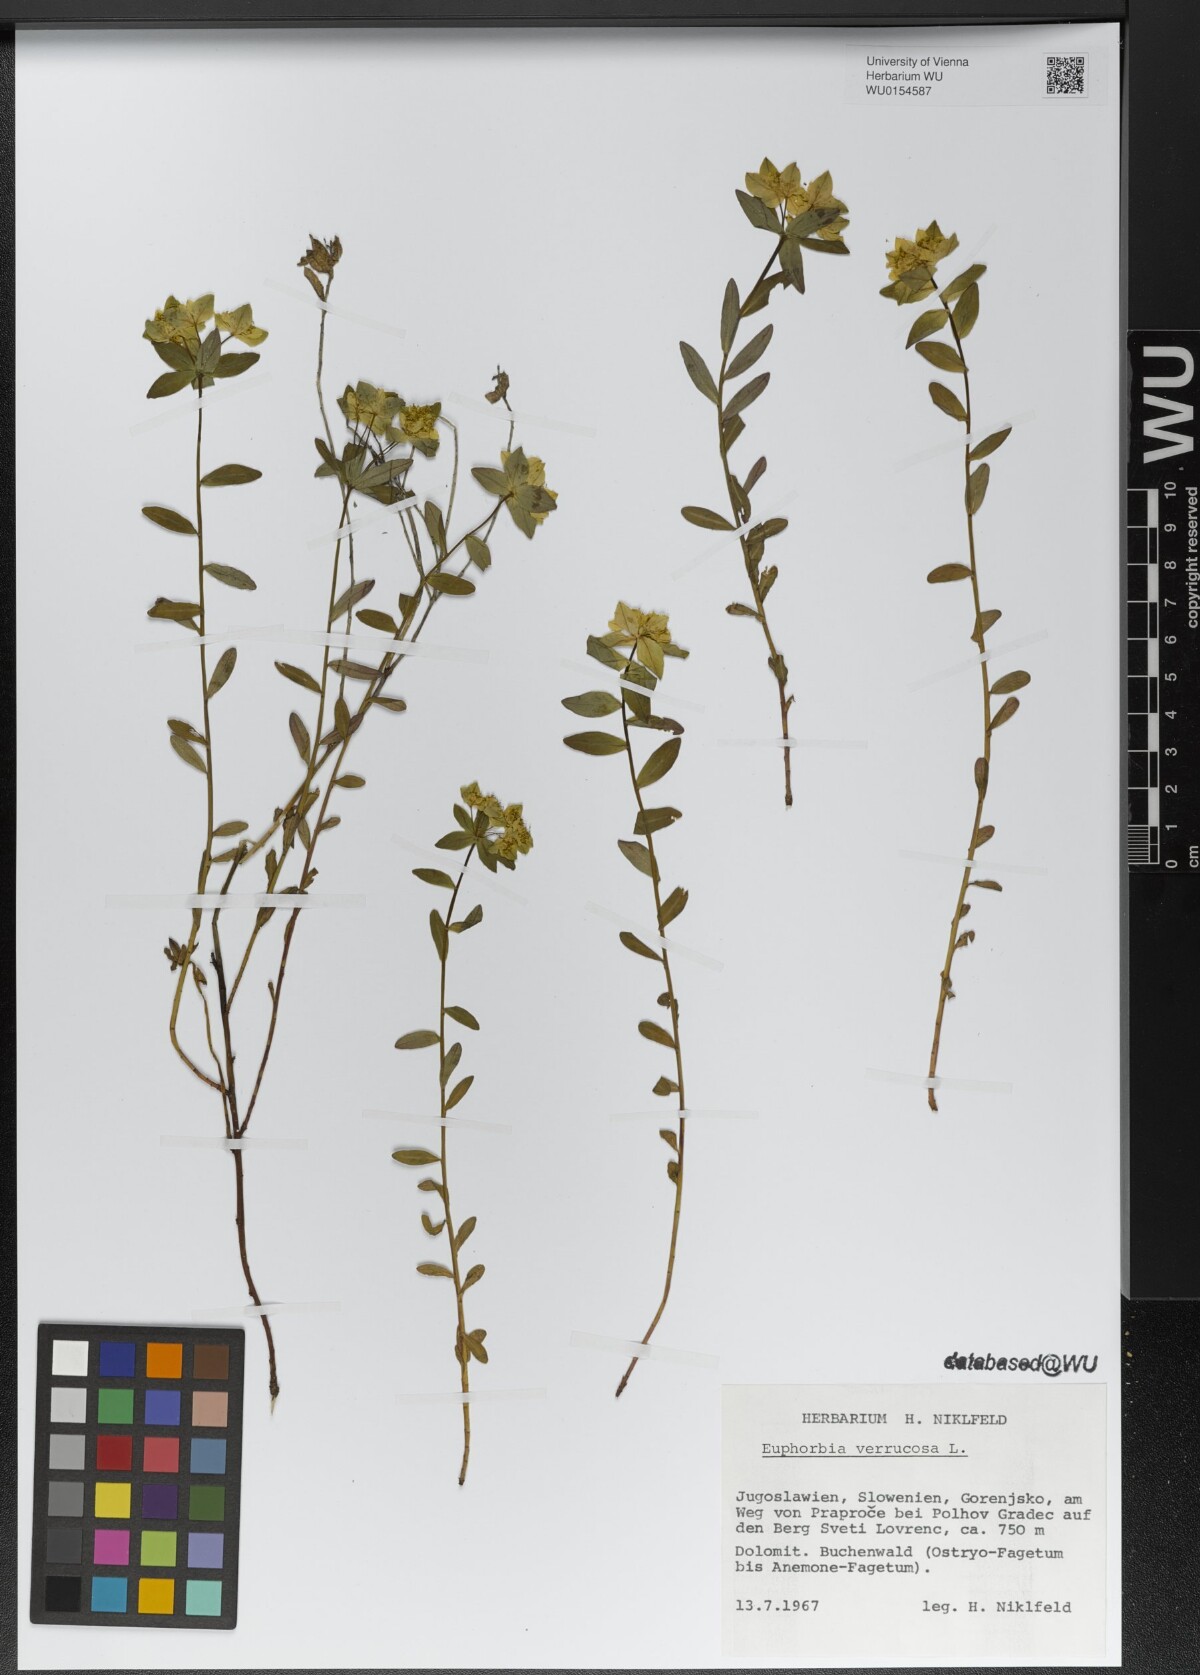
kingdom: Plantae
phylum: Tracheophyta
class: Magnoliopsida
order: Malpighiales
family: Euphorbiaceae
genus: Euphorbia
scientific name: Euphorbia verrucosa
